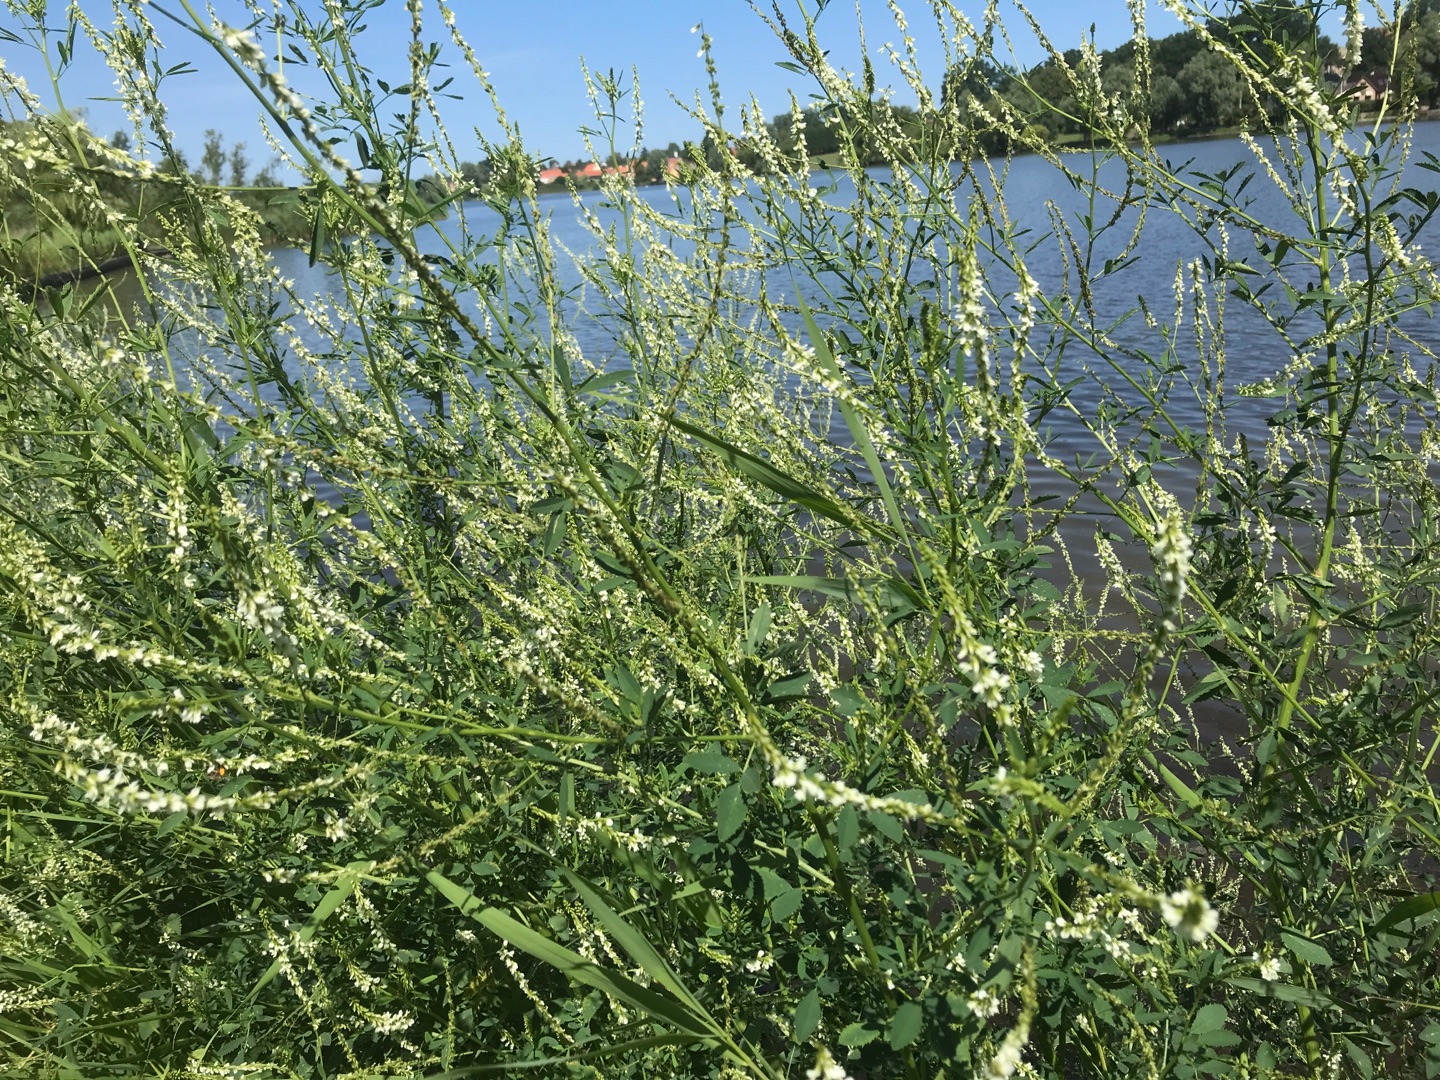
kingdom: Plantae
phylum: Tracheophyta
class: Magnoliopsida
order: Fabales
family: Fabaceae
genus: Melilotus
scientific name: Melilotus albus
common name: Hvid stenkløver
